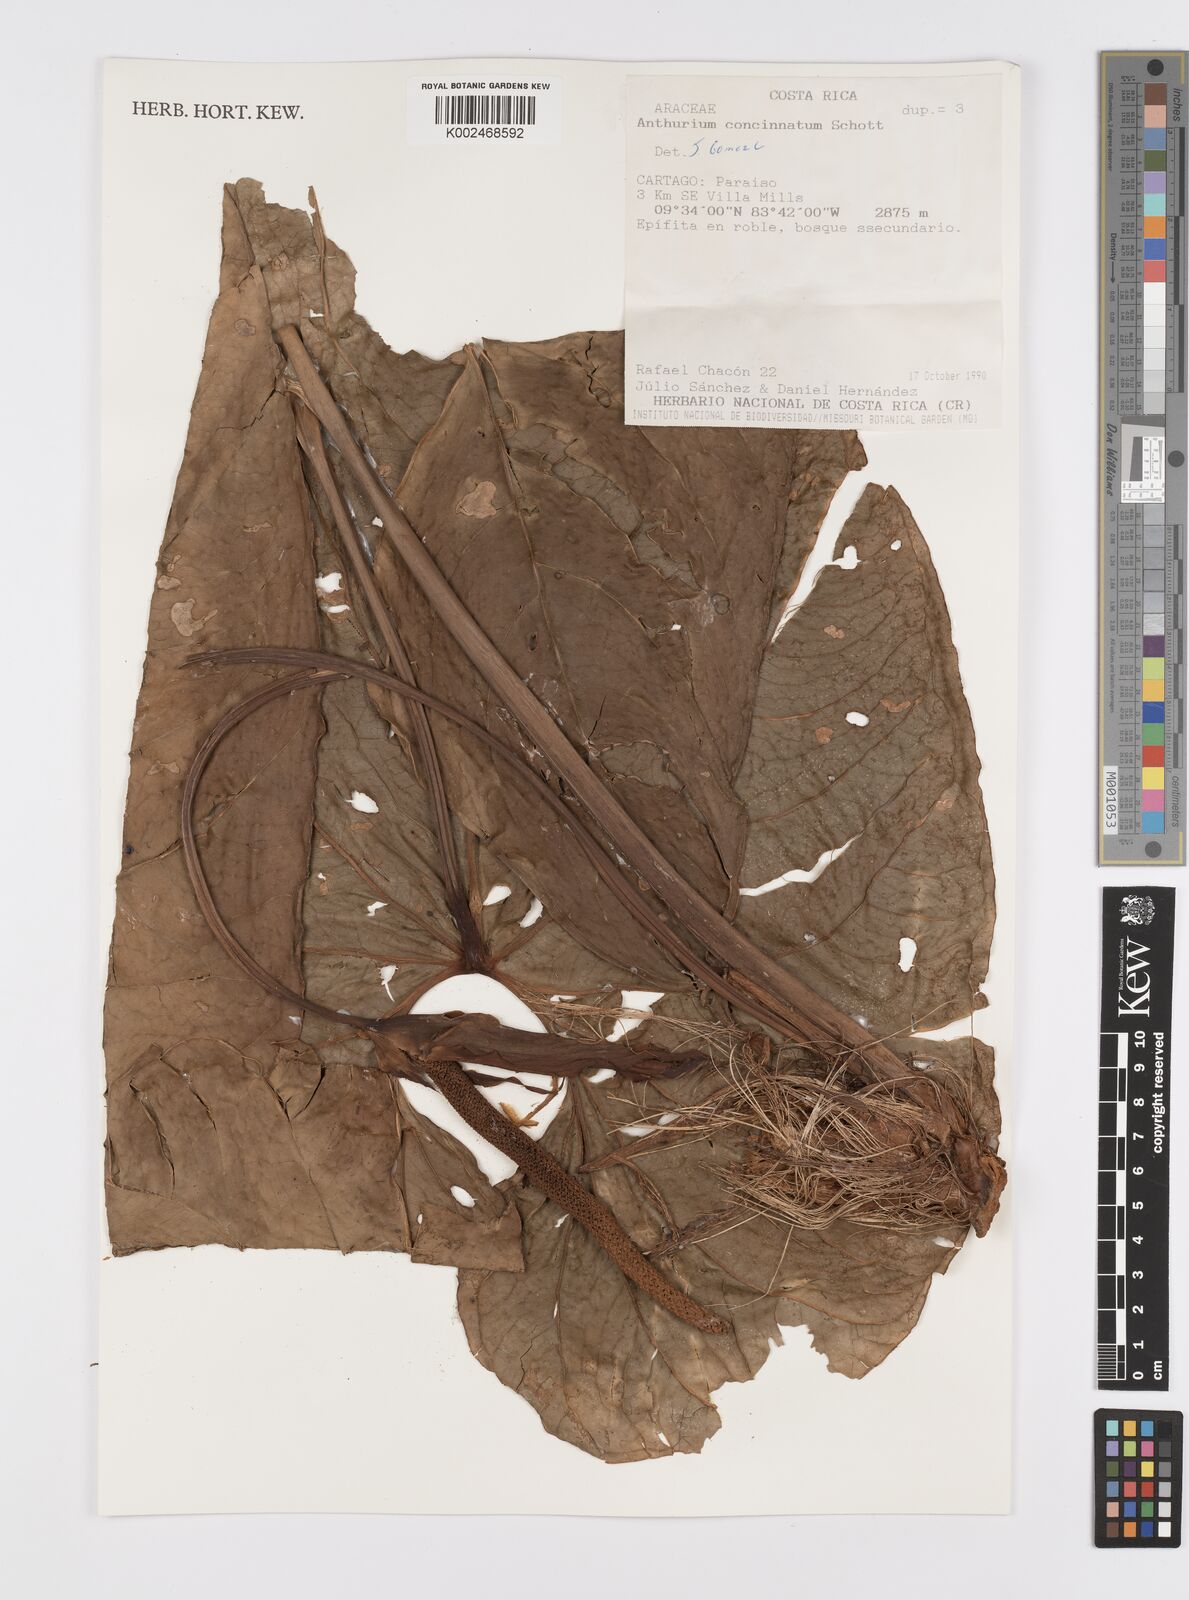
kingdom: Plantae
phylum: Tracheophyta
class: Liliopsida
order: Alismatales
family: Araceae
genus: Anthurium
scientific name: Anthurium concinnatum
